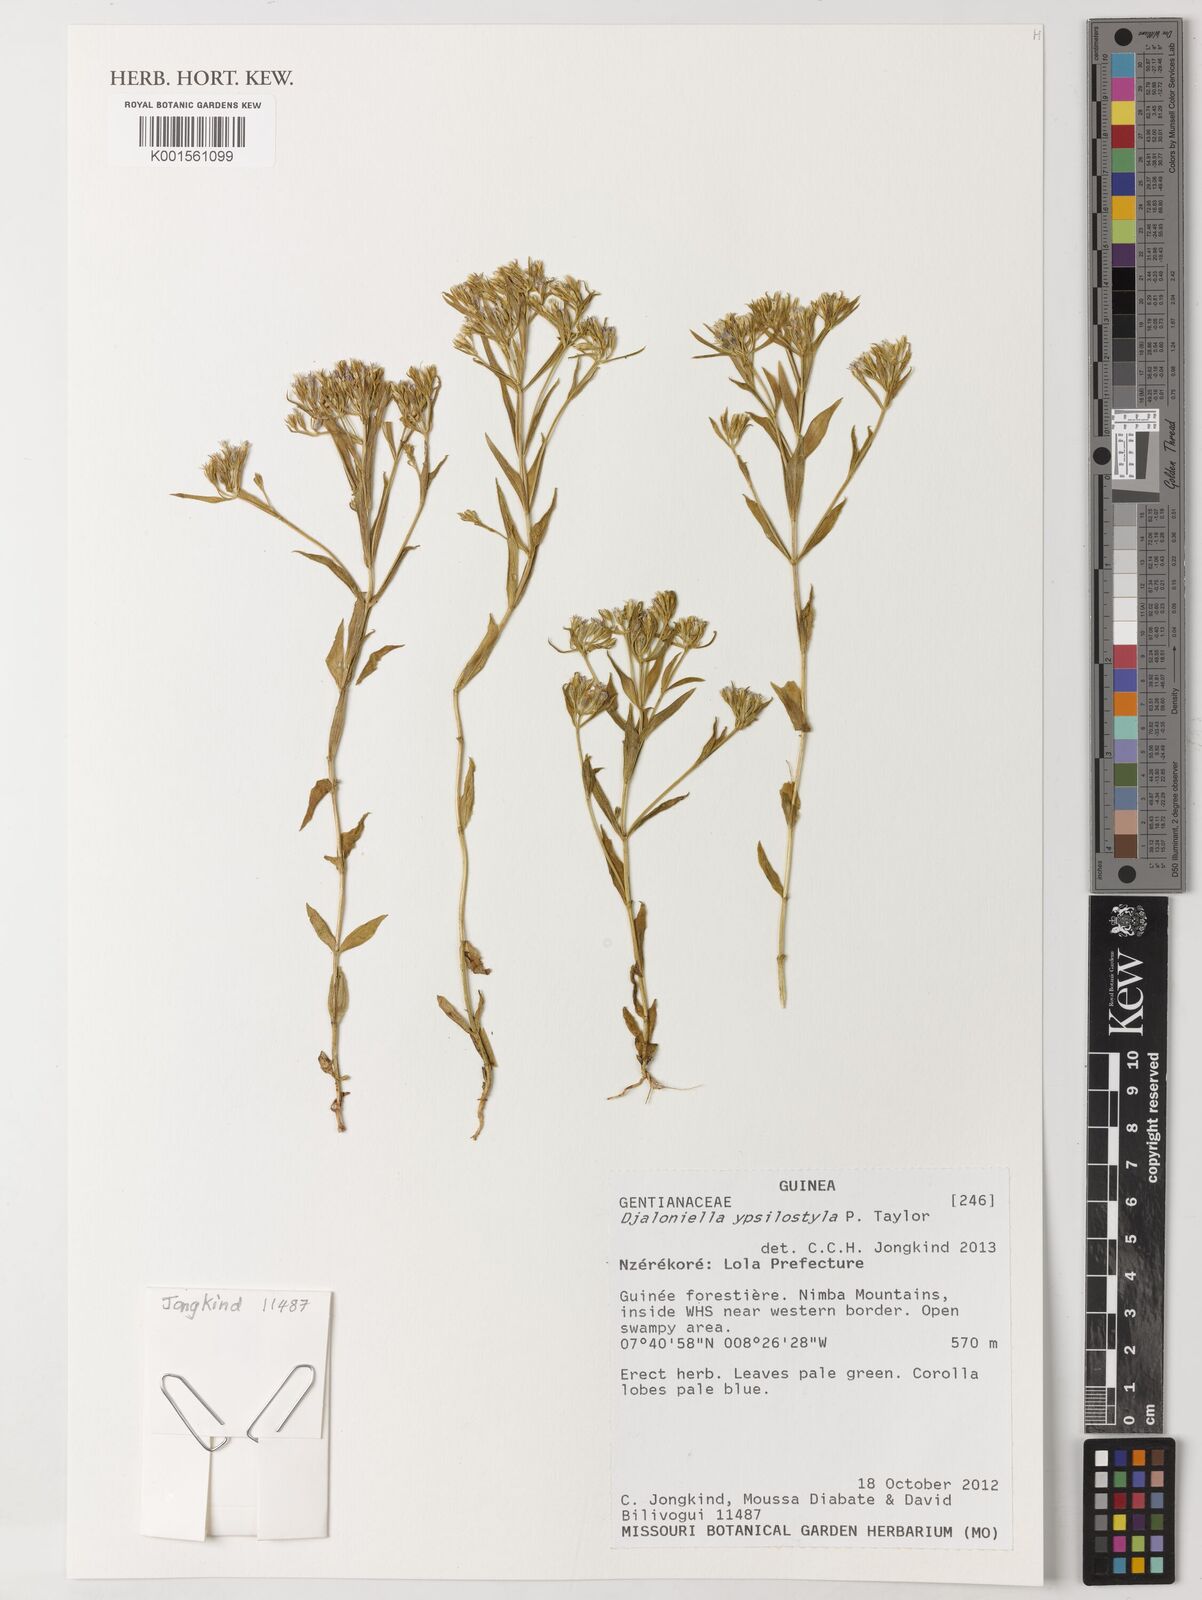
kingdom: Plantae
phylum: Tracheophyta
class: Magnoliopsida
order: Gentianales
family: Gentianaceae
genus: Djaloniella
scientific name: Djaloniella ypsilostyla
